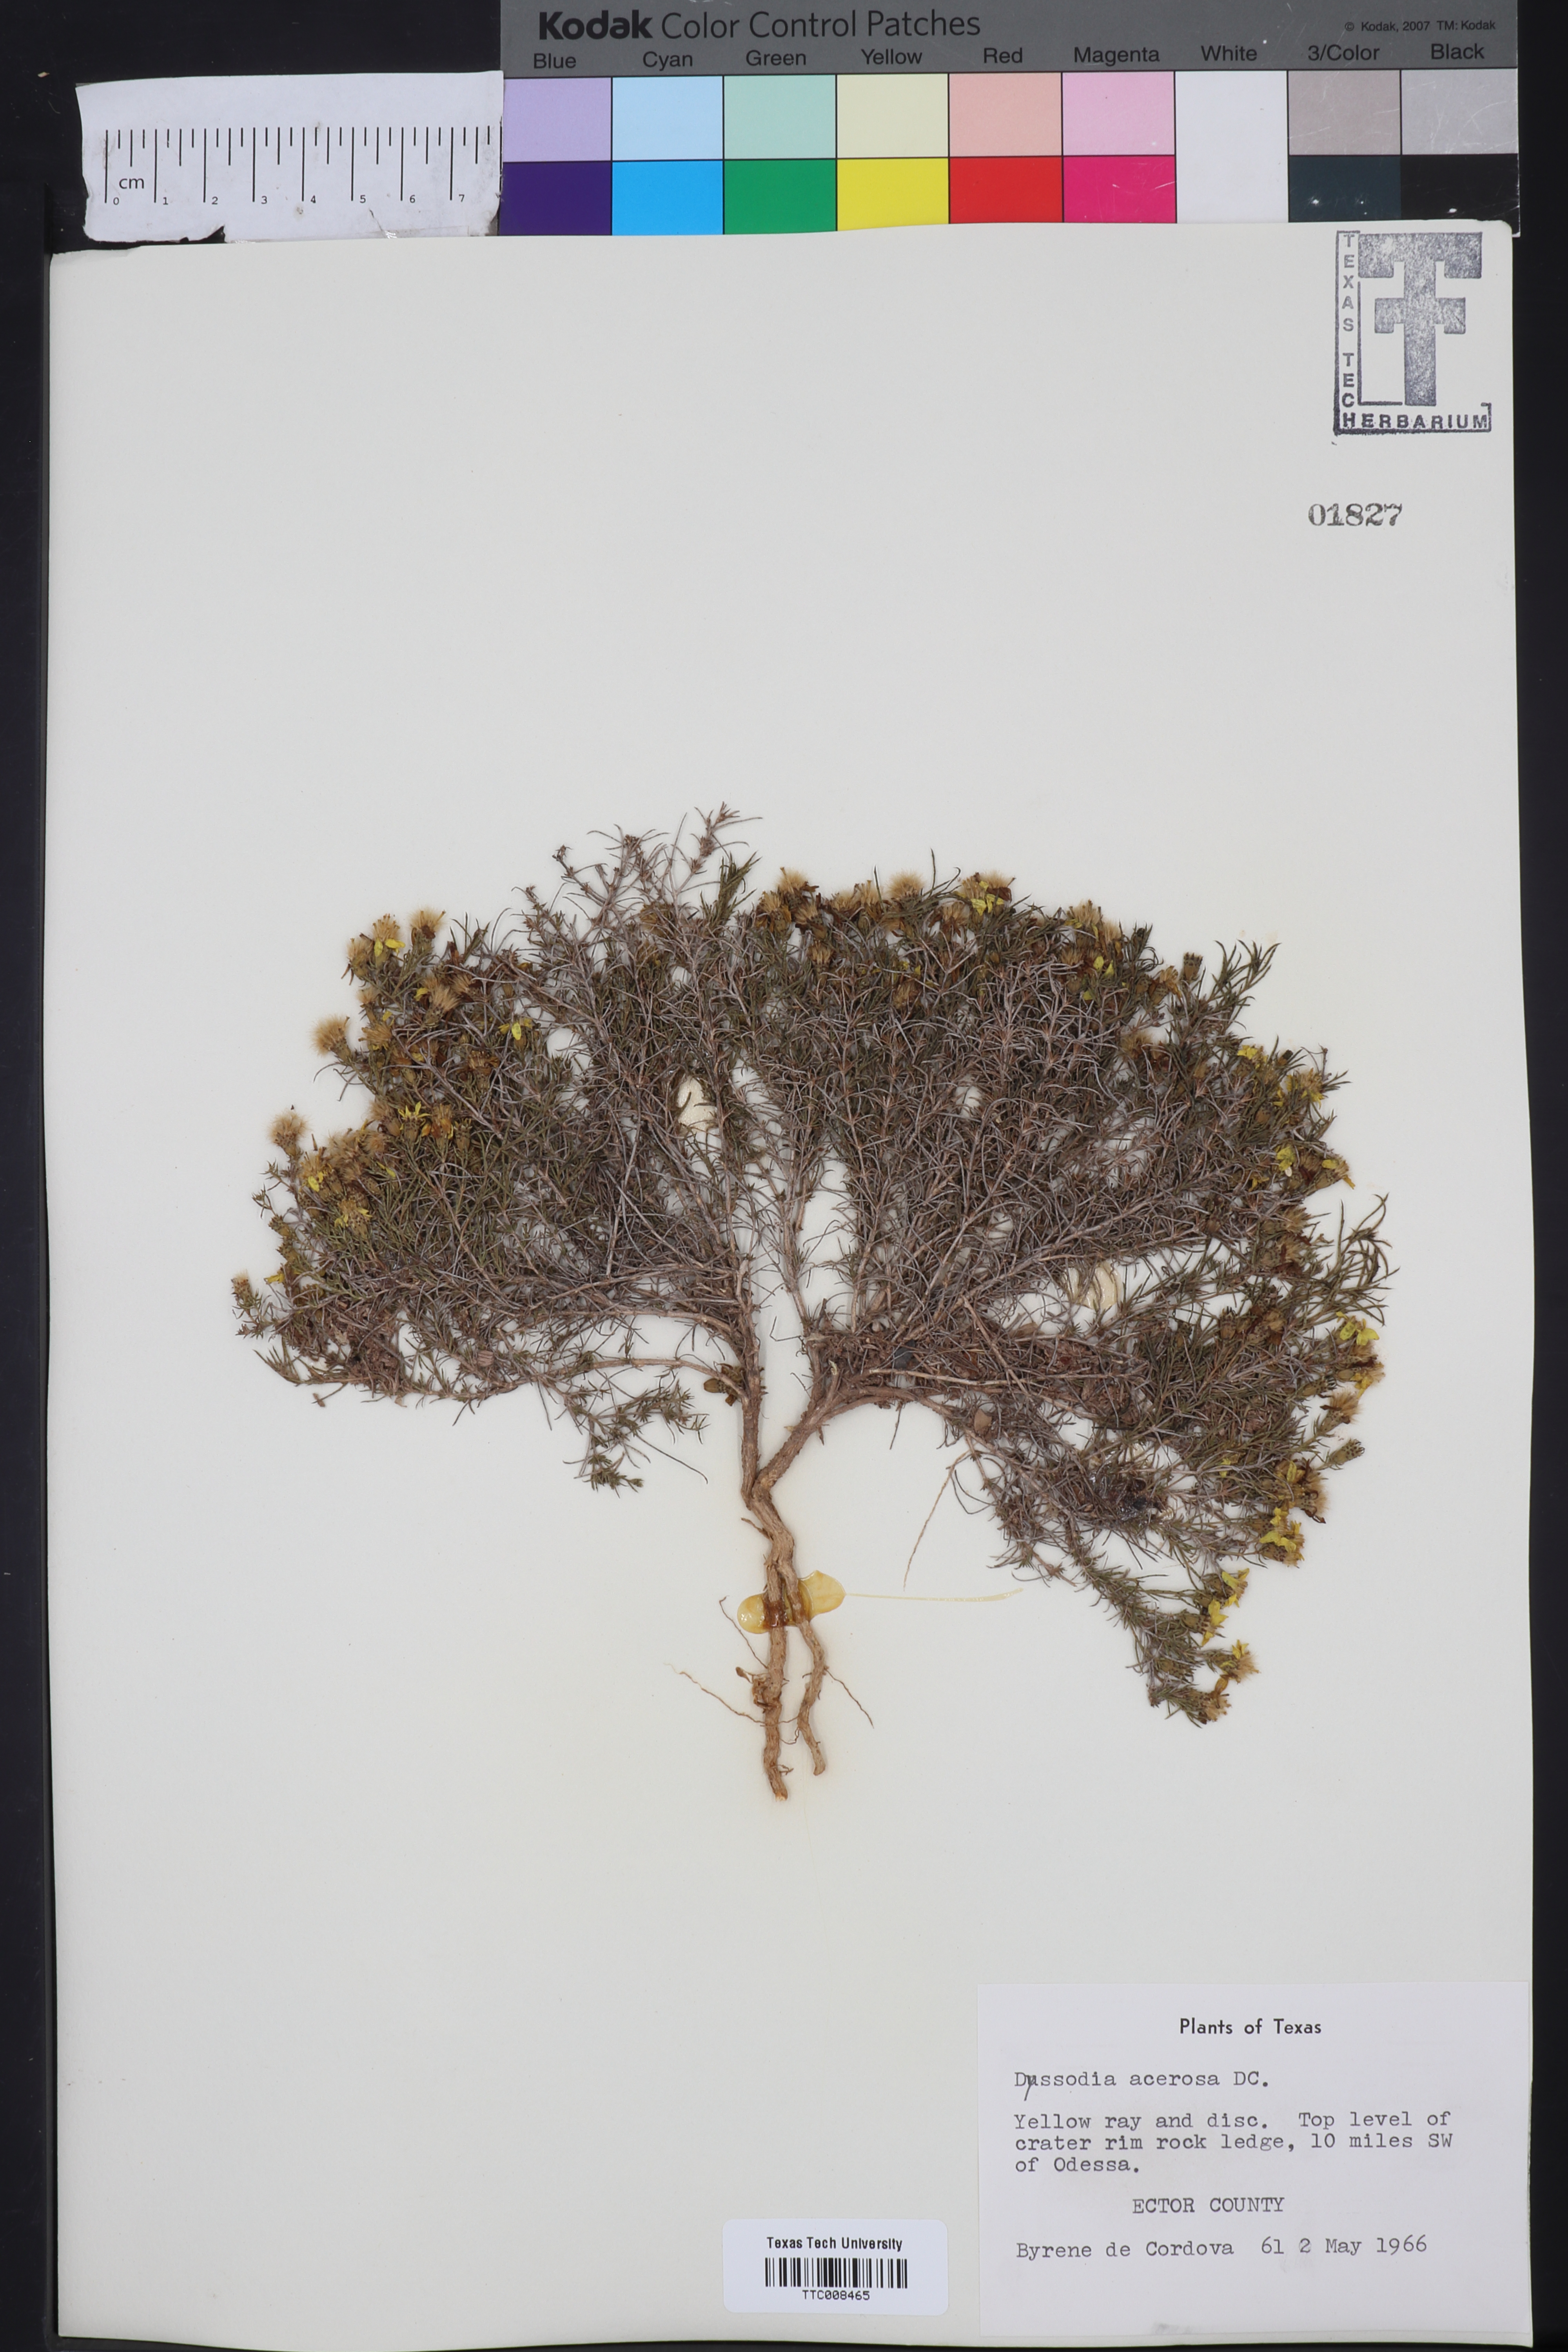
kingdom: Plantae
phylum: Tracheophyta
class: Magnoliopsida
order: Asterales
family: Asteraceae
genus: Thymophylla
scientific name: Thymophylla acerosa
